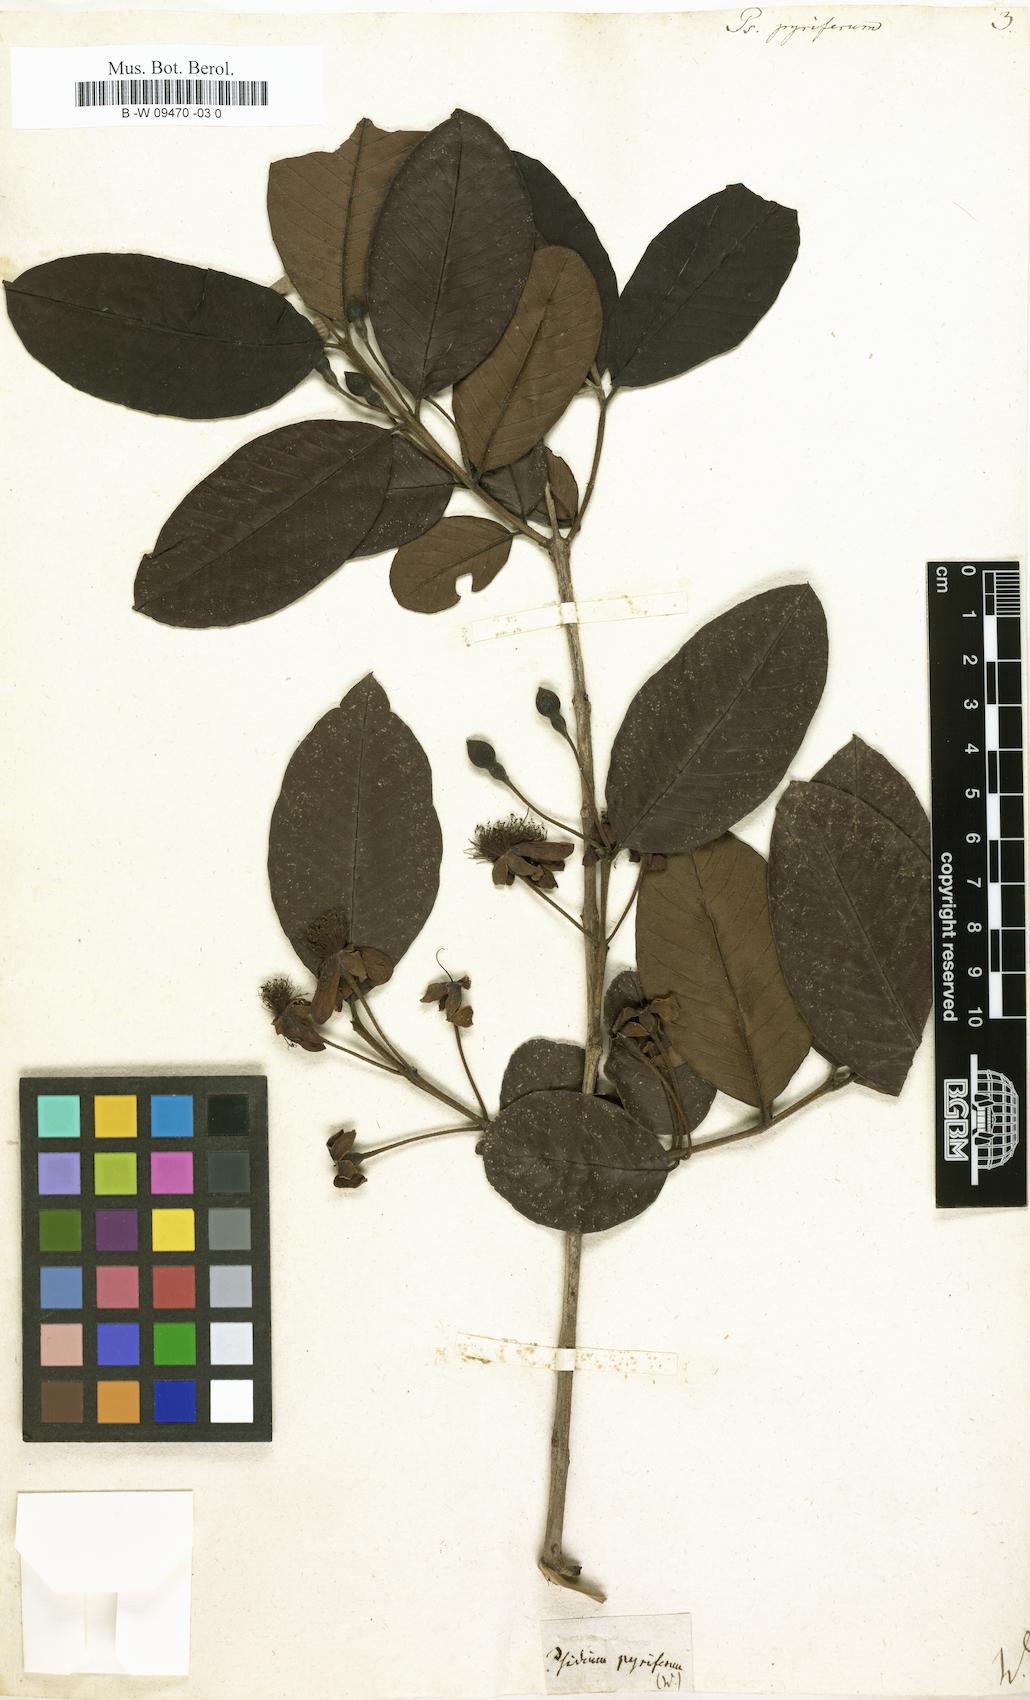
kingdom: Plantae
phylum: Tracheophyta
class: Magnoliopsida
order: Myrtales
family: Myrtaceae
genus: Psidium
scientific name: Psidium guajava
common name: Guava
